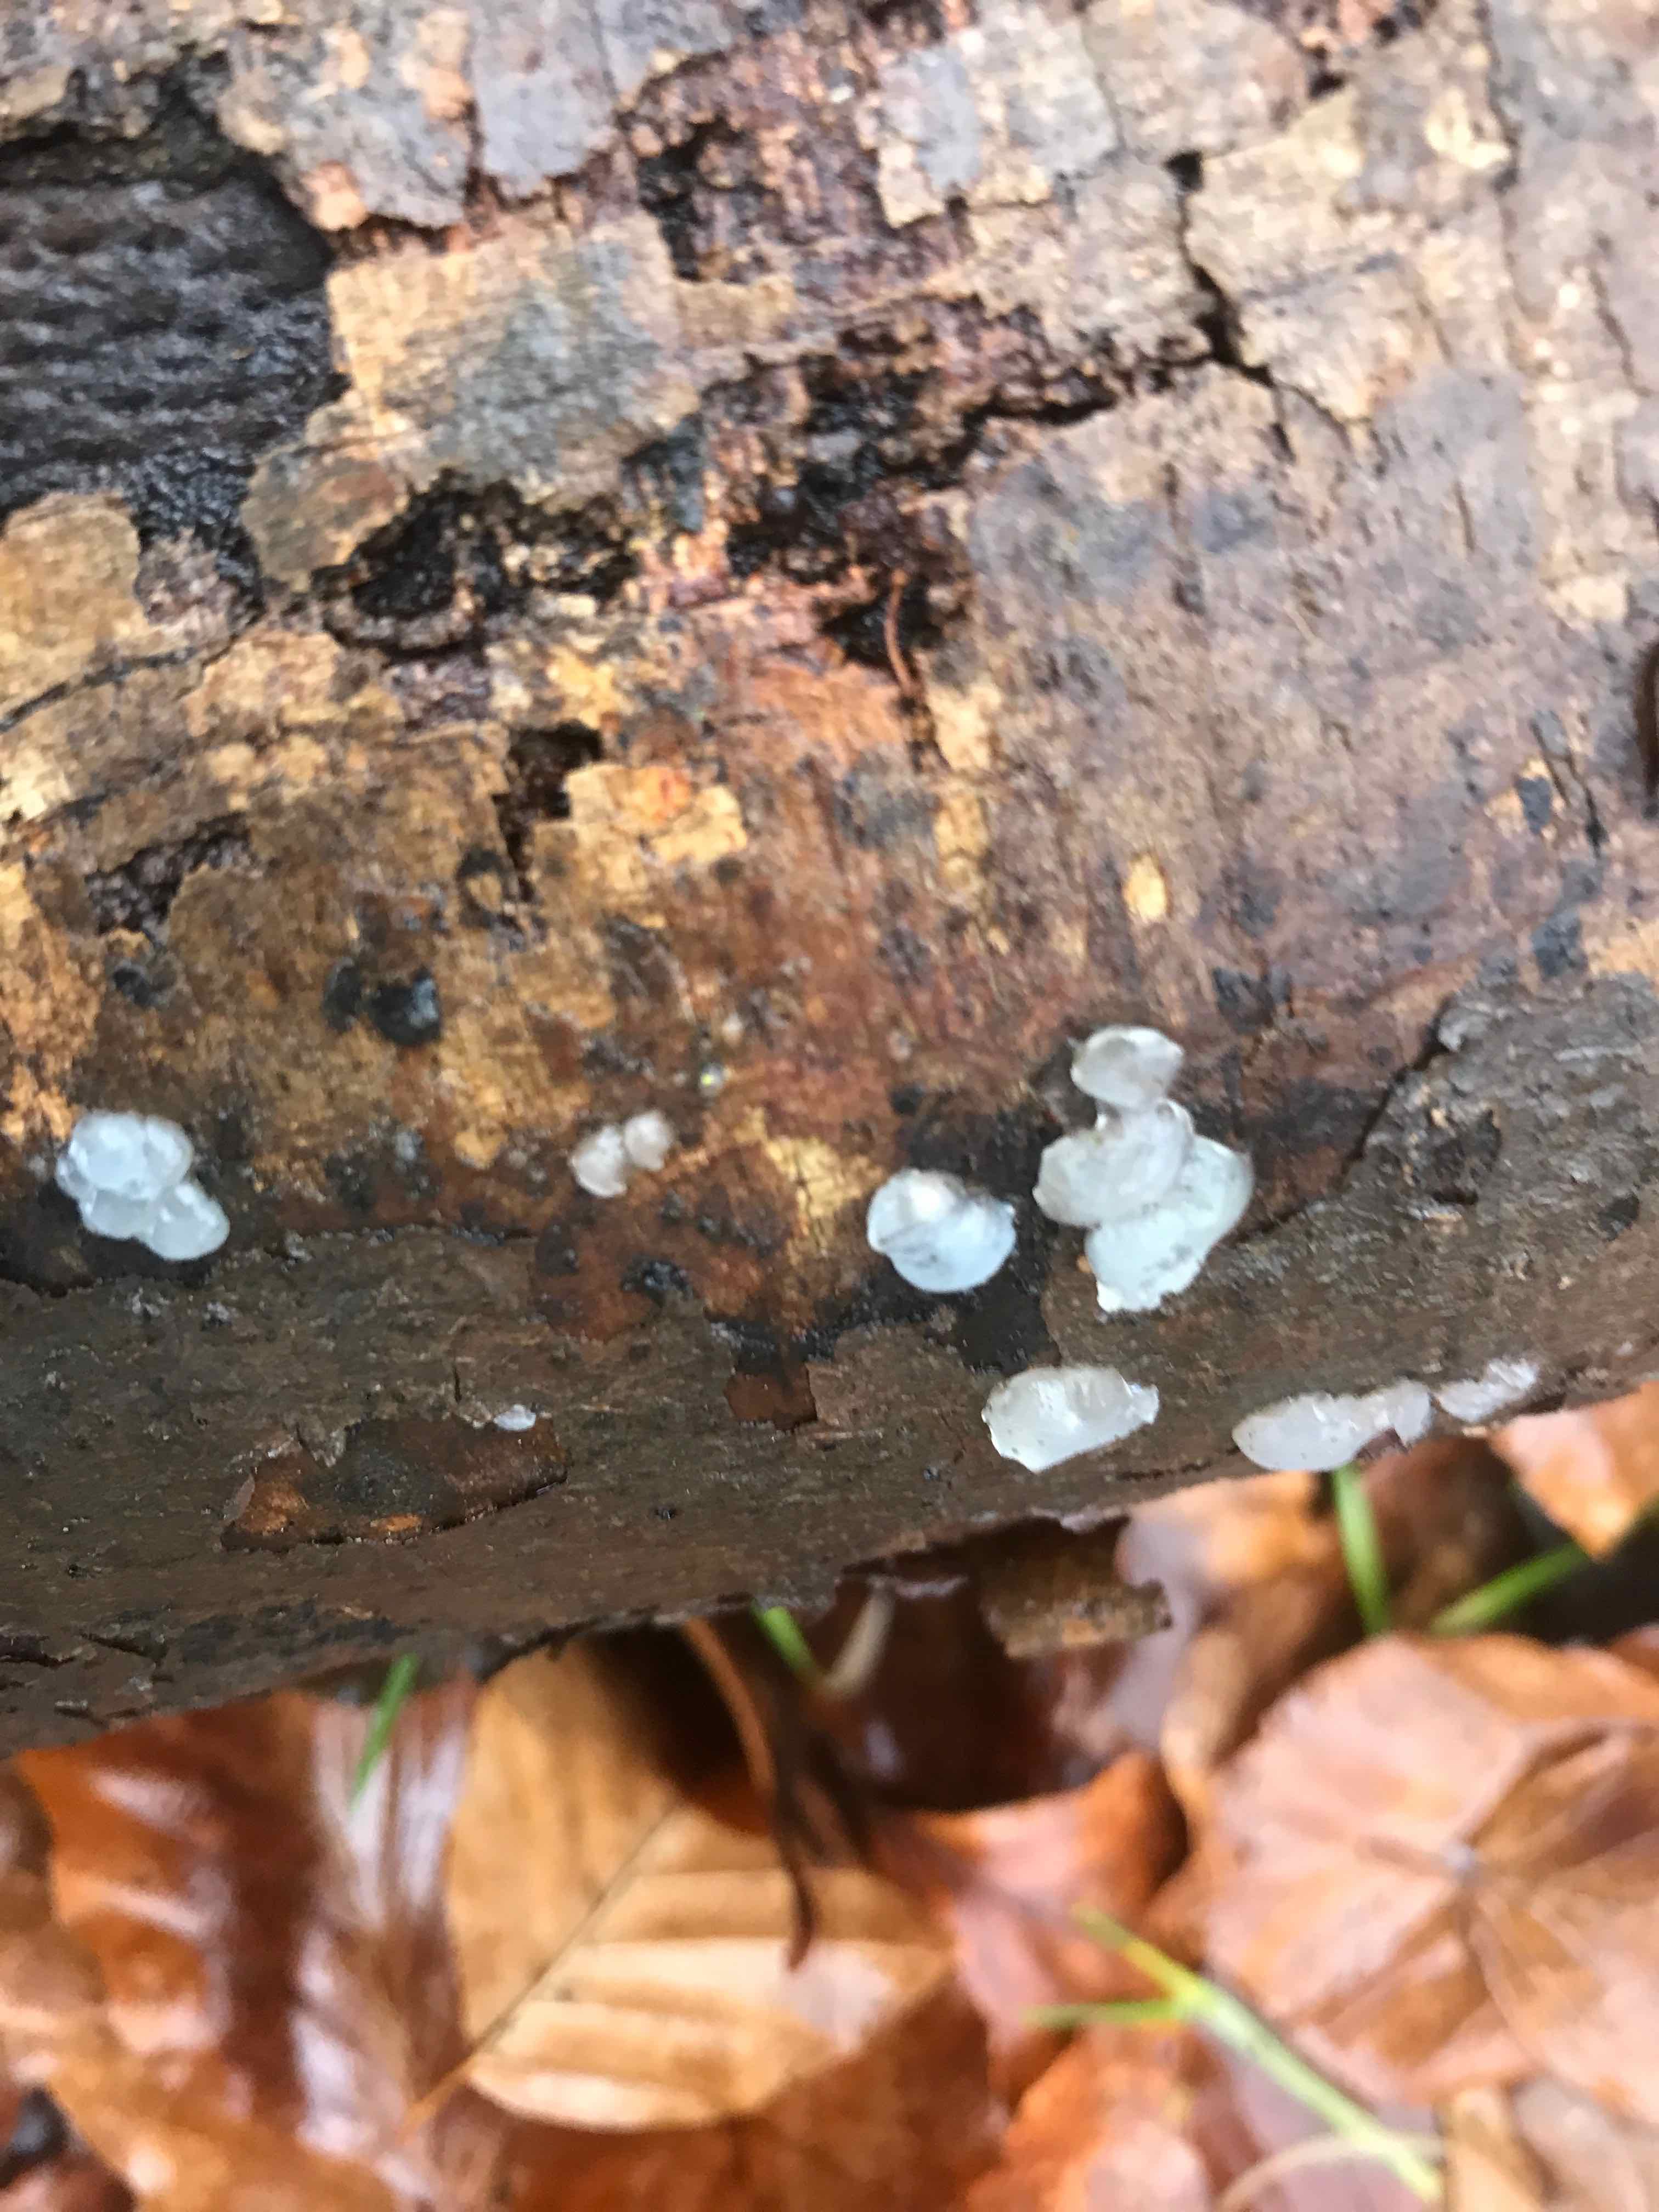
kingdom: Fungi
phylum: Basidiomycota
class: Agaricomycetes
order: Auriculariales
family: Hyaloriaceae
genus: Myxarium
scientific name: Myxarium nucleatum
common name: klar bævretop
